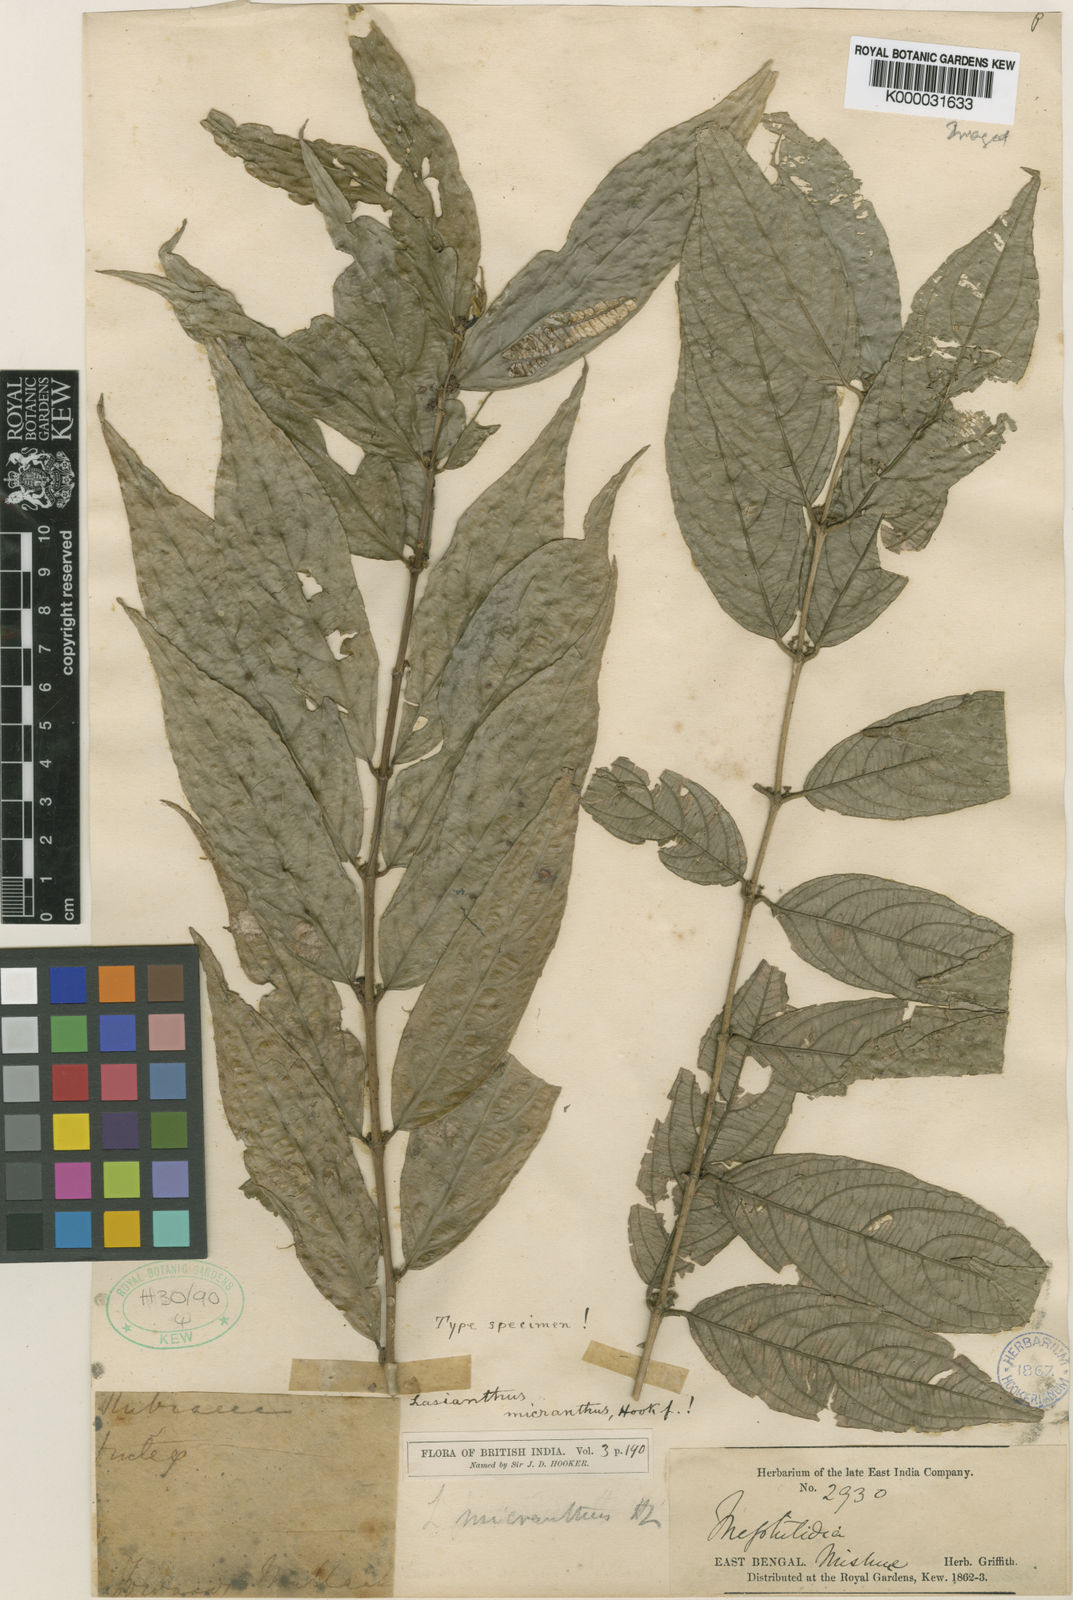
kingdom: Plantae
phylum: Tracheophyta
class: Magnoliopsida
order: Gentianales
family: Rubiaceae
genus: Lasianthus
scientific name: Lasianthus micranthus
